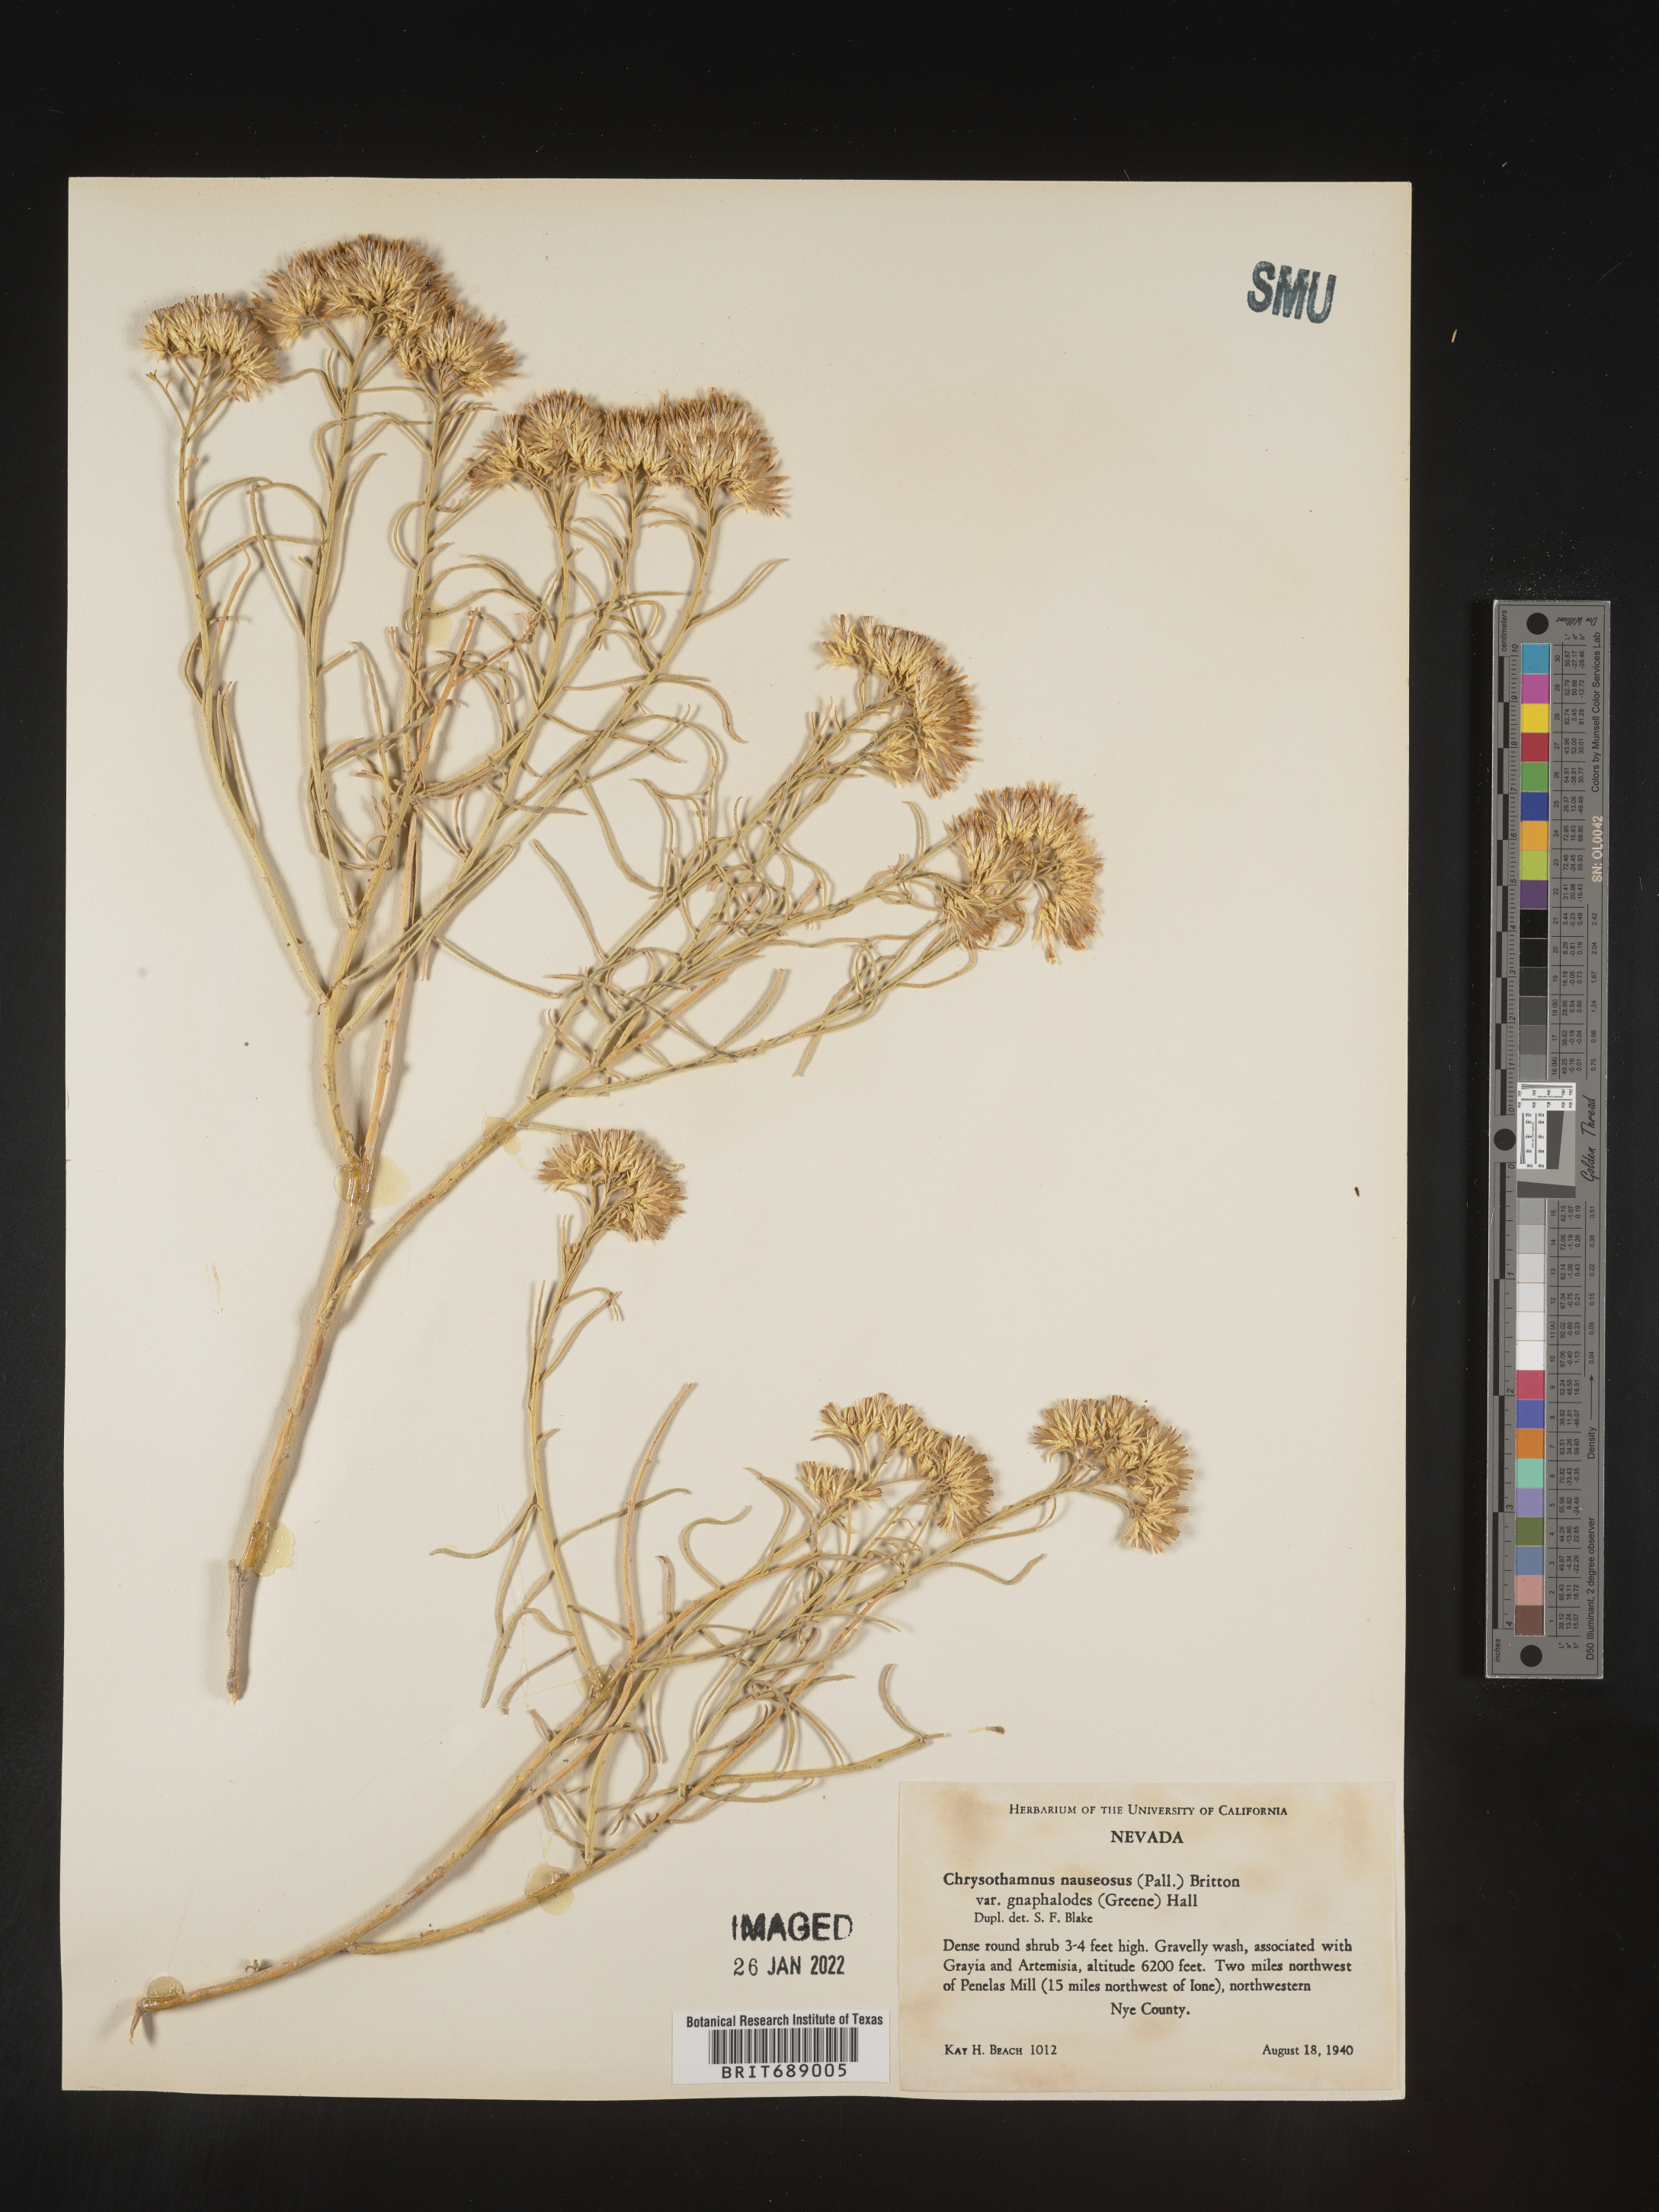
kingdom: Plantae
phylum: Tracheophyta
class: Magnoliopsida
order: Asterales
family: Asteraceae
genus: Ericameria
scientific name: Ericameria nauseosa
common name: Rubber rabbitbrush
